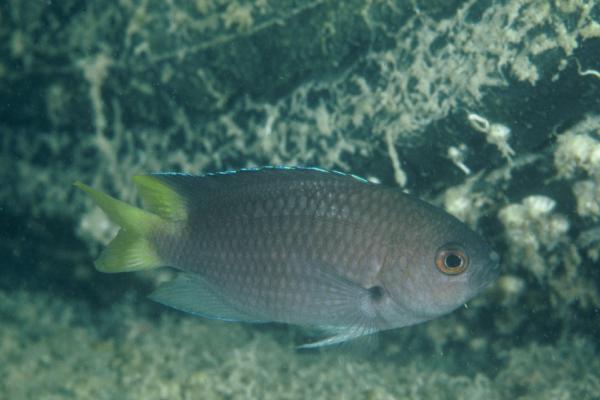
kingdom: Animalia
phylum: Chordata
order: Perciformes
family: Pomacentridae
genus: Neopomacentrus
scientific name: Neopomacentrus sindensis
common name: Arabian demoiselle
